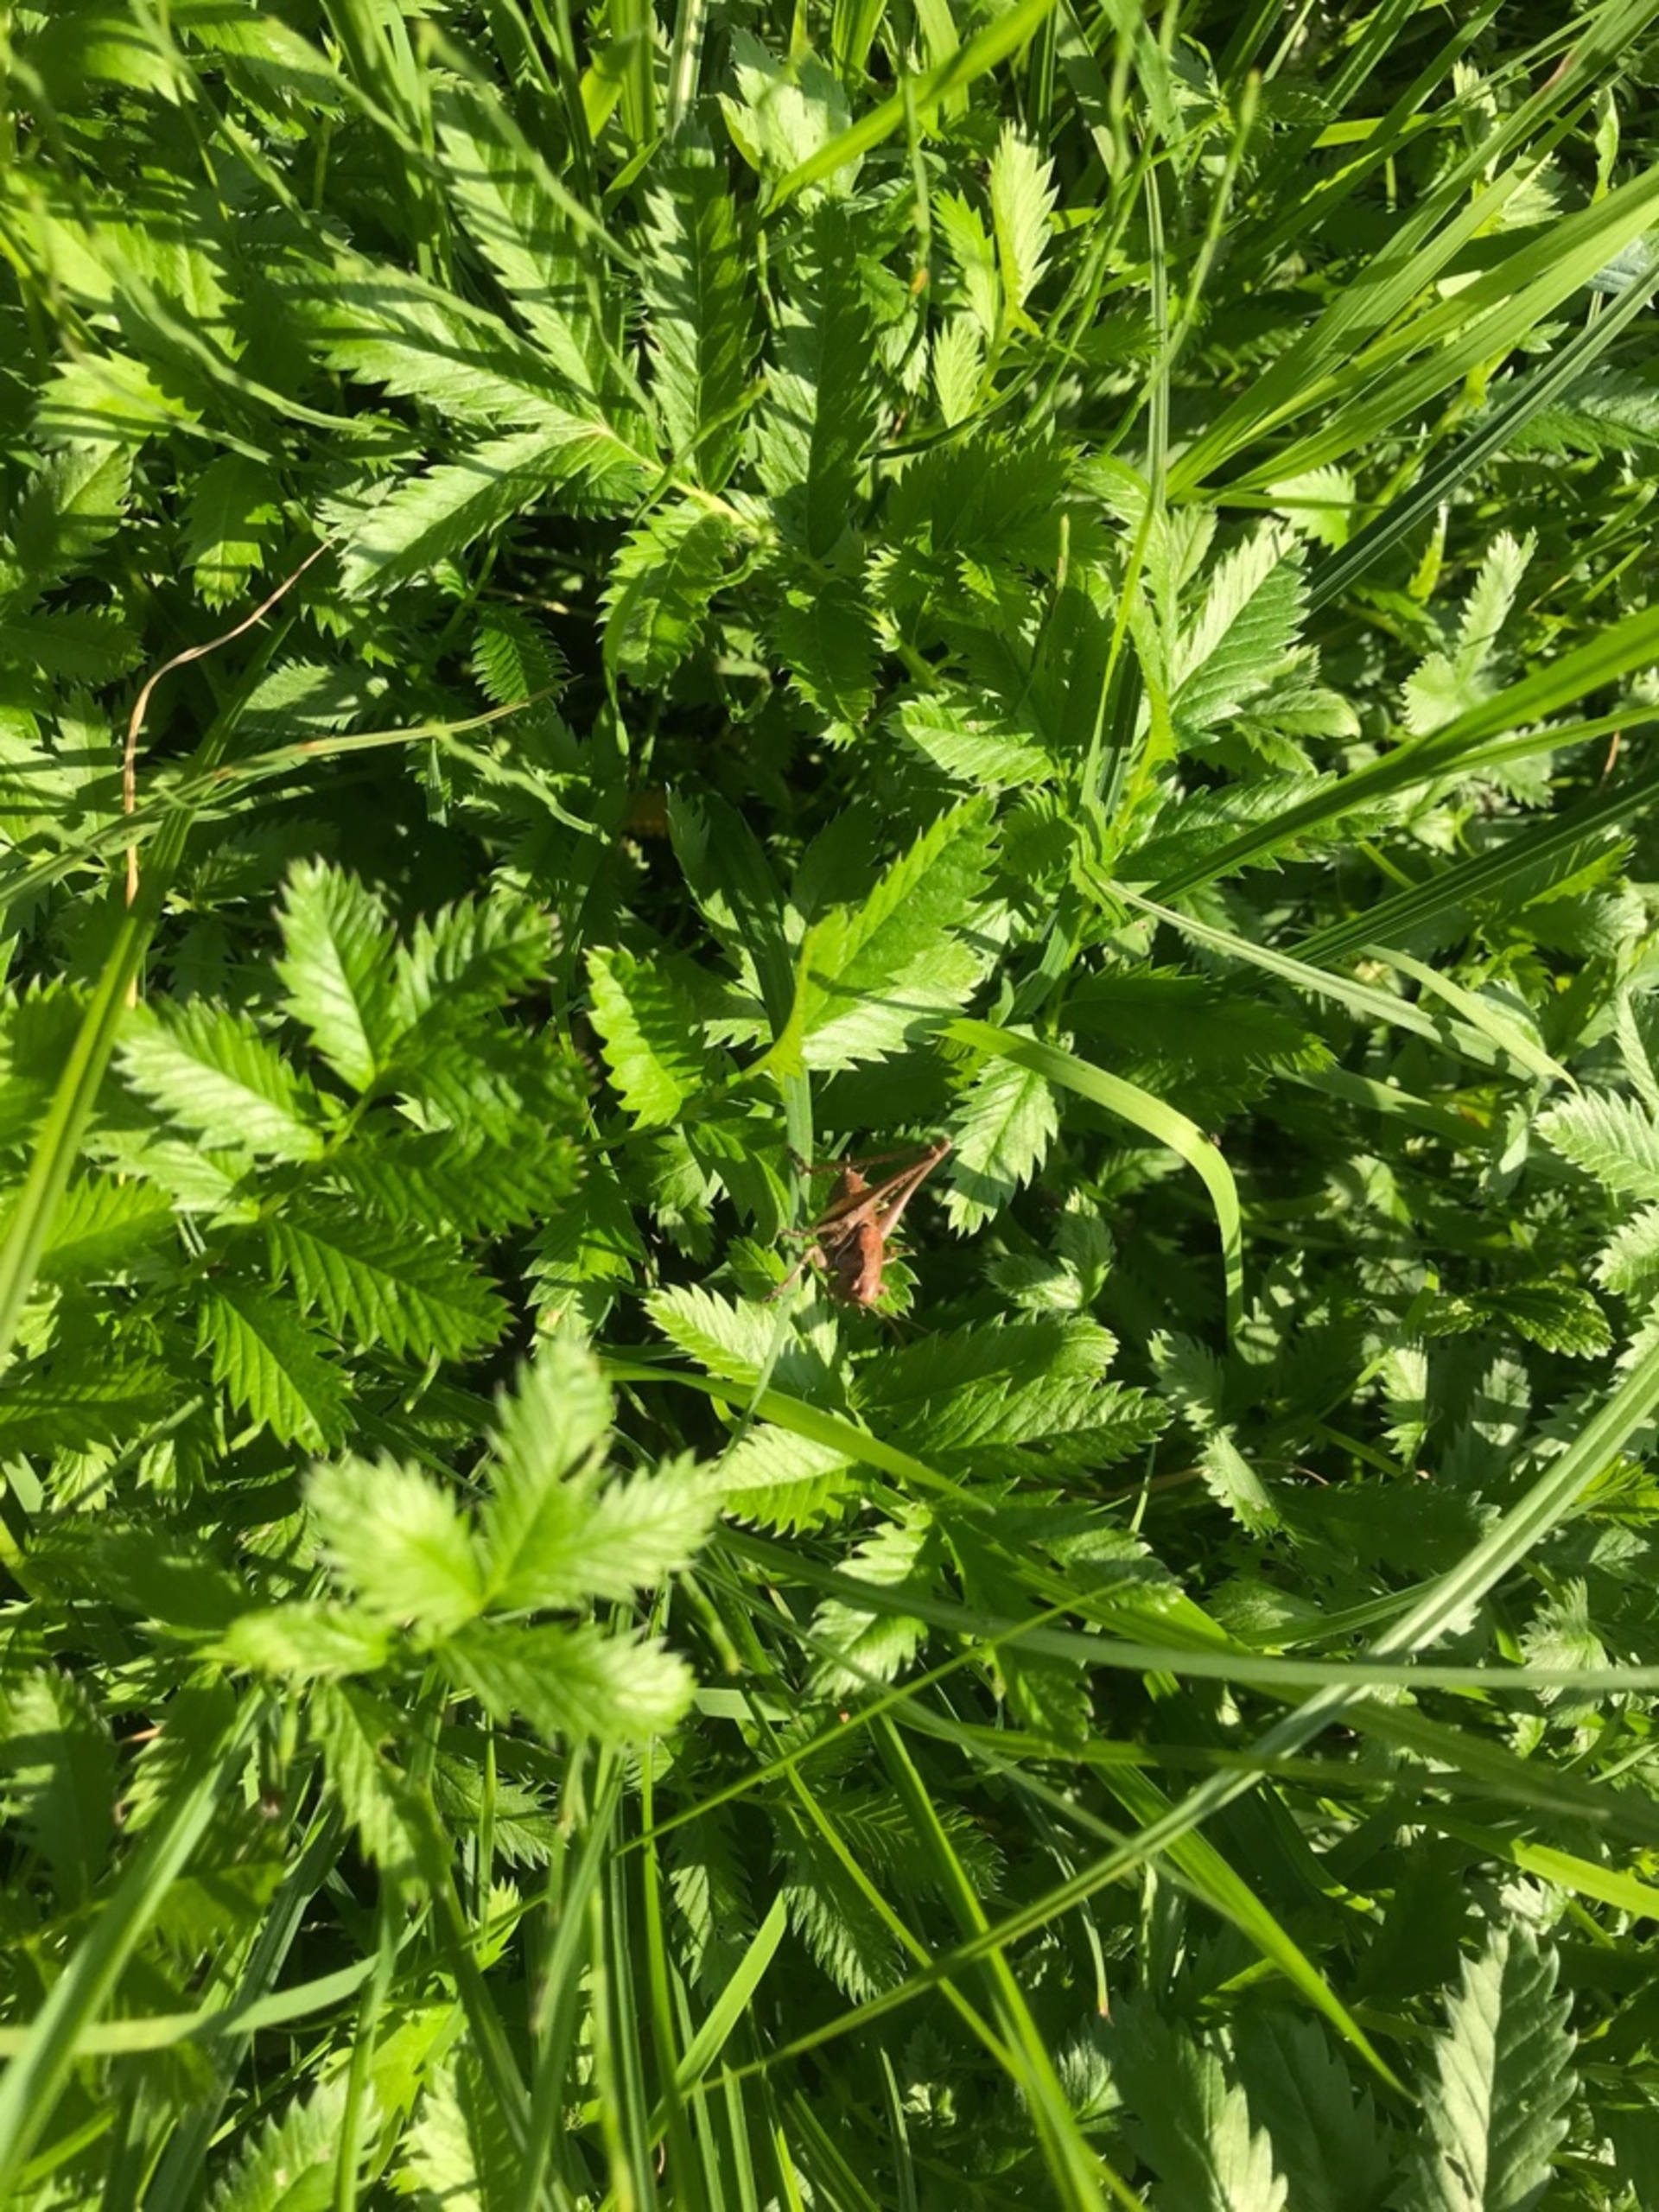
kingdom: Animalia
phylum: Arthropoda
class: Insecta
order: Orthoptera
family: Tettigoniidae
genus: Pholidoptera
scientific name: Pholidoptera griseoaptera
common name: Buskgræshoppe
